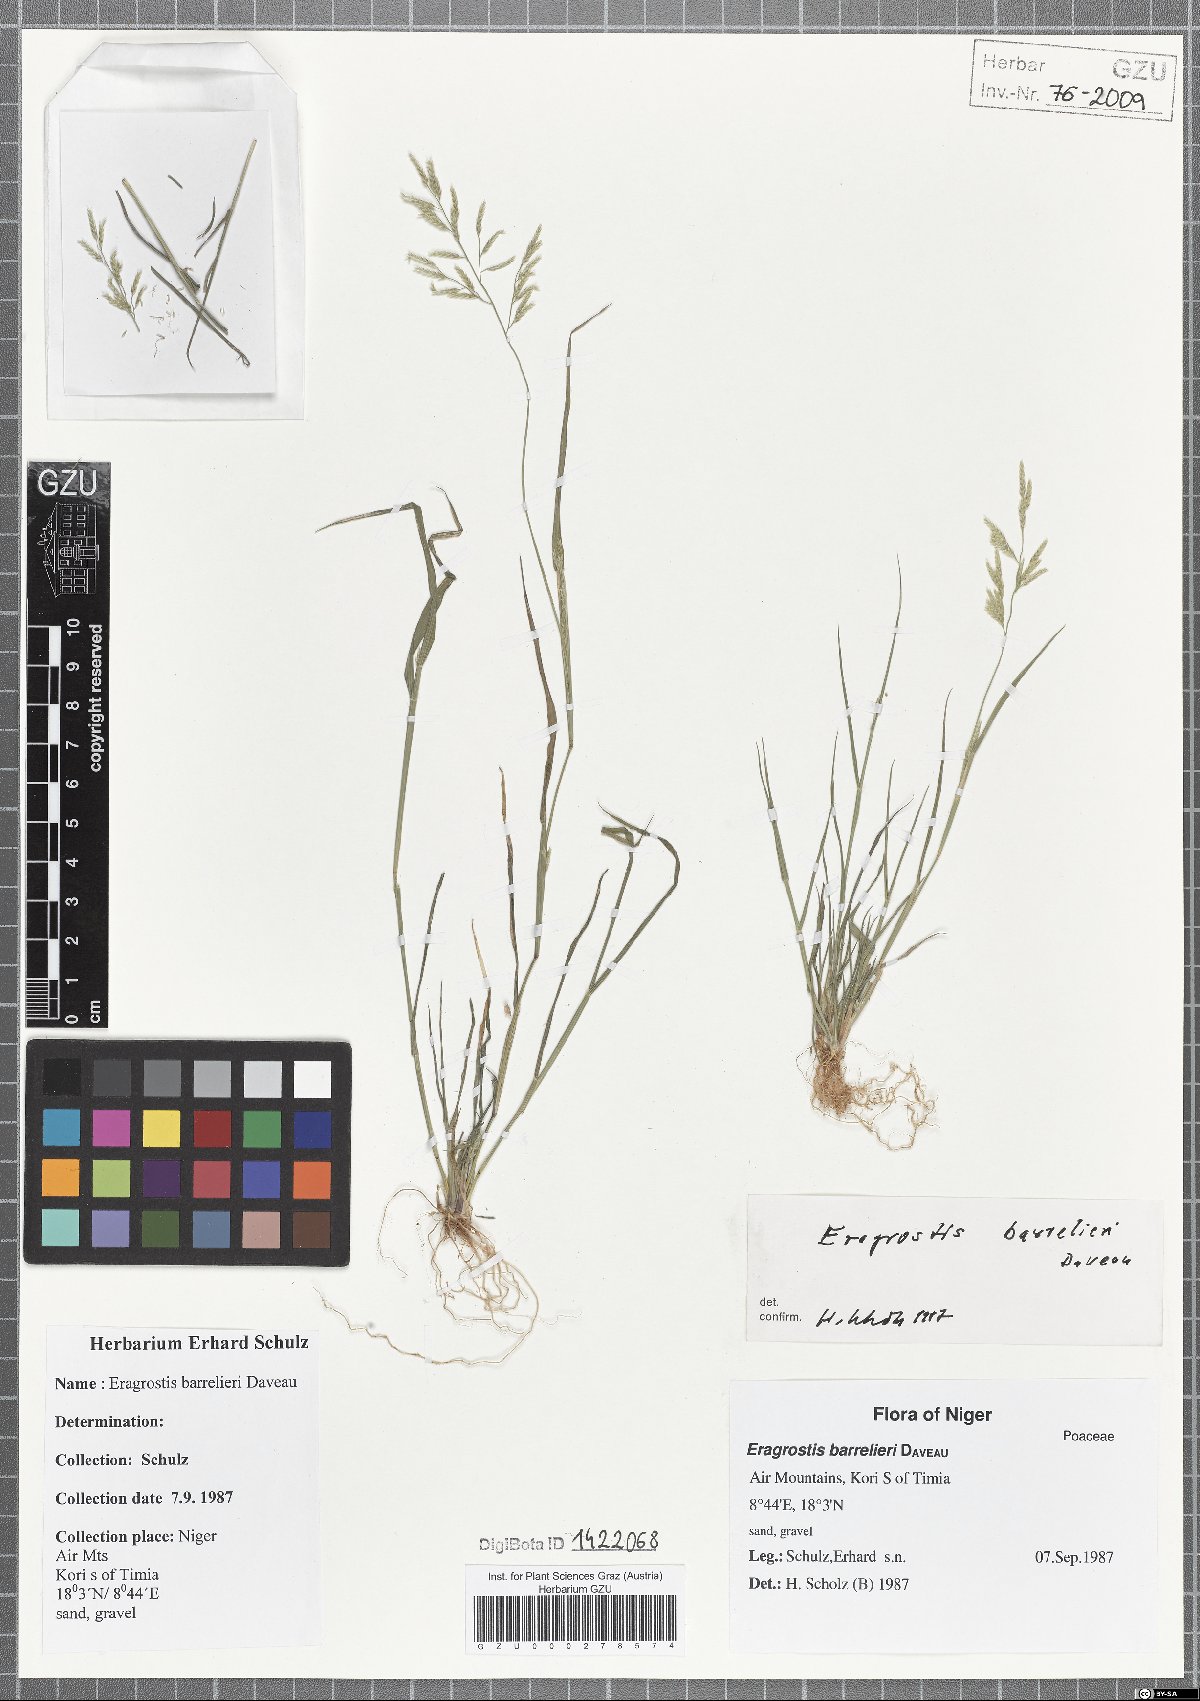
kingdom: Plantae
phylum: Tracheophyta
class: Liliopsida
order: Poales
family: Poaceae
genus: Eragrostis
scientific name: Eragrostis barrelieri
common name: Mediterranean lovegrass
